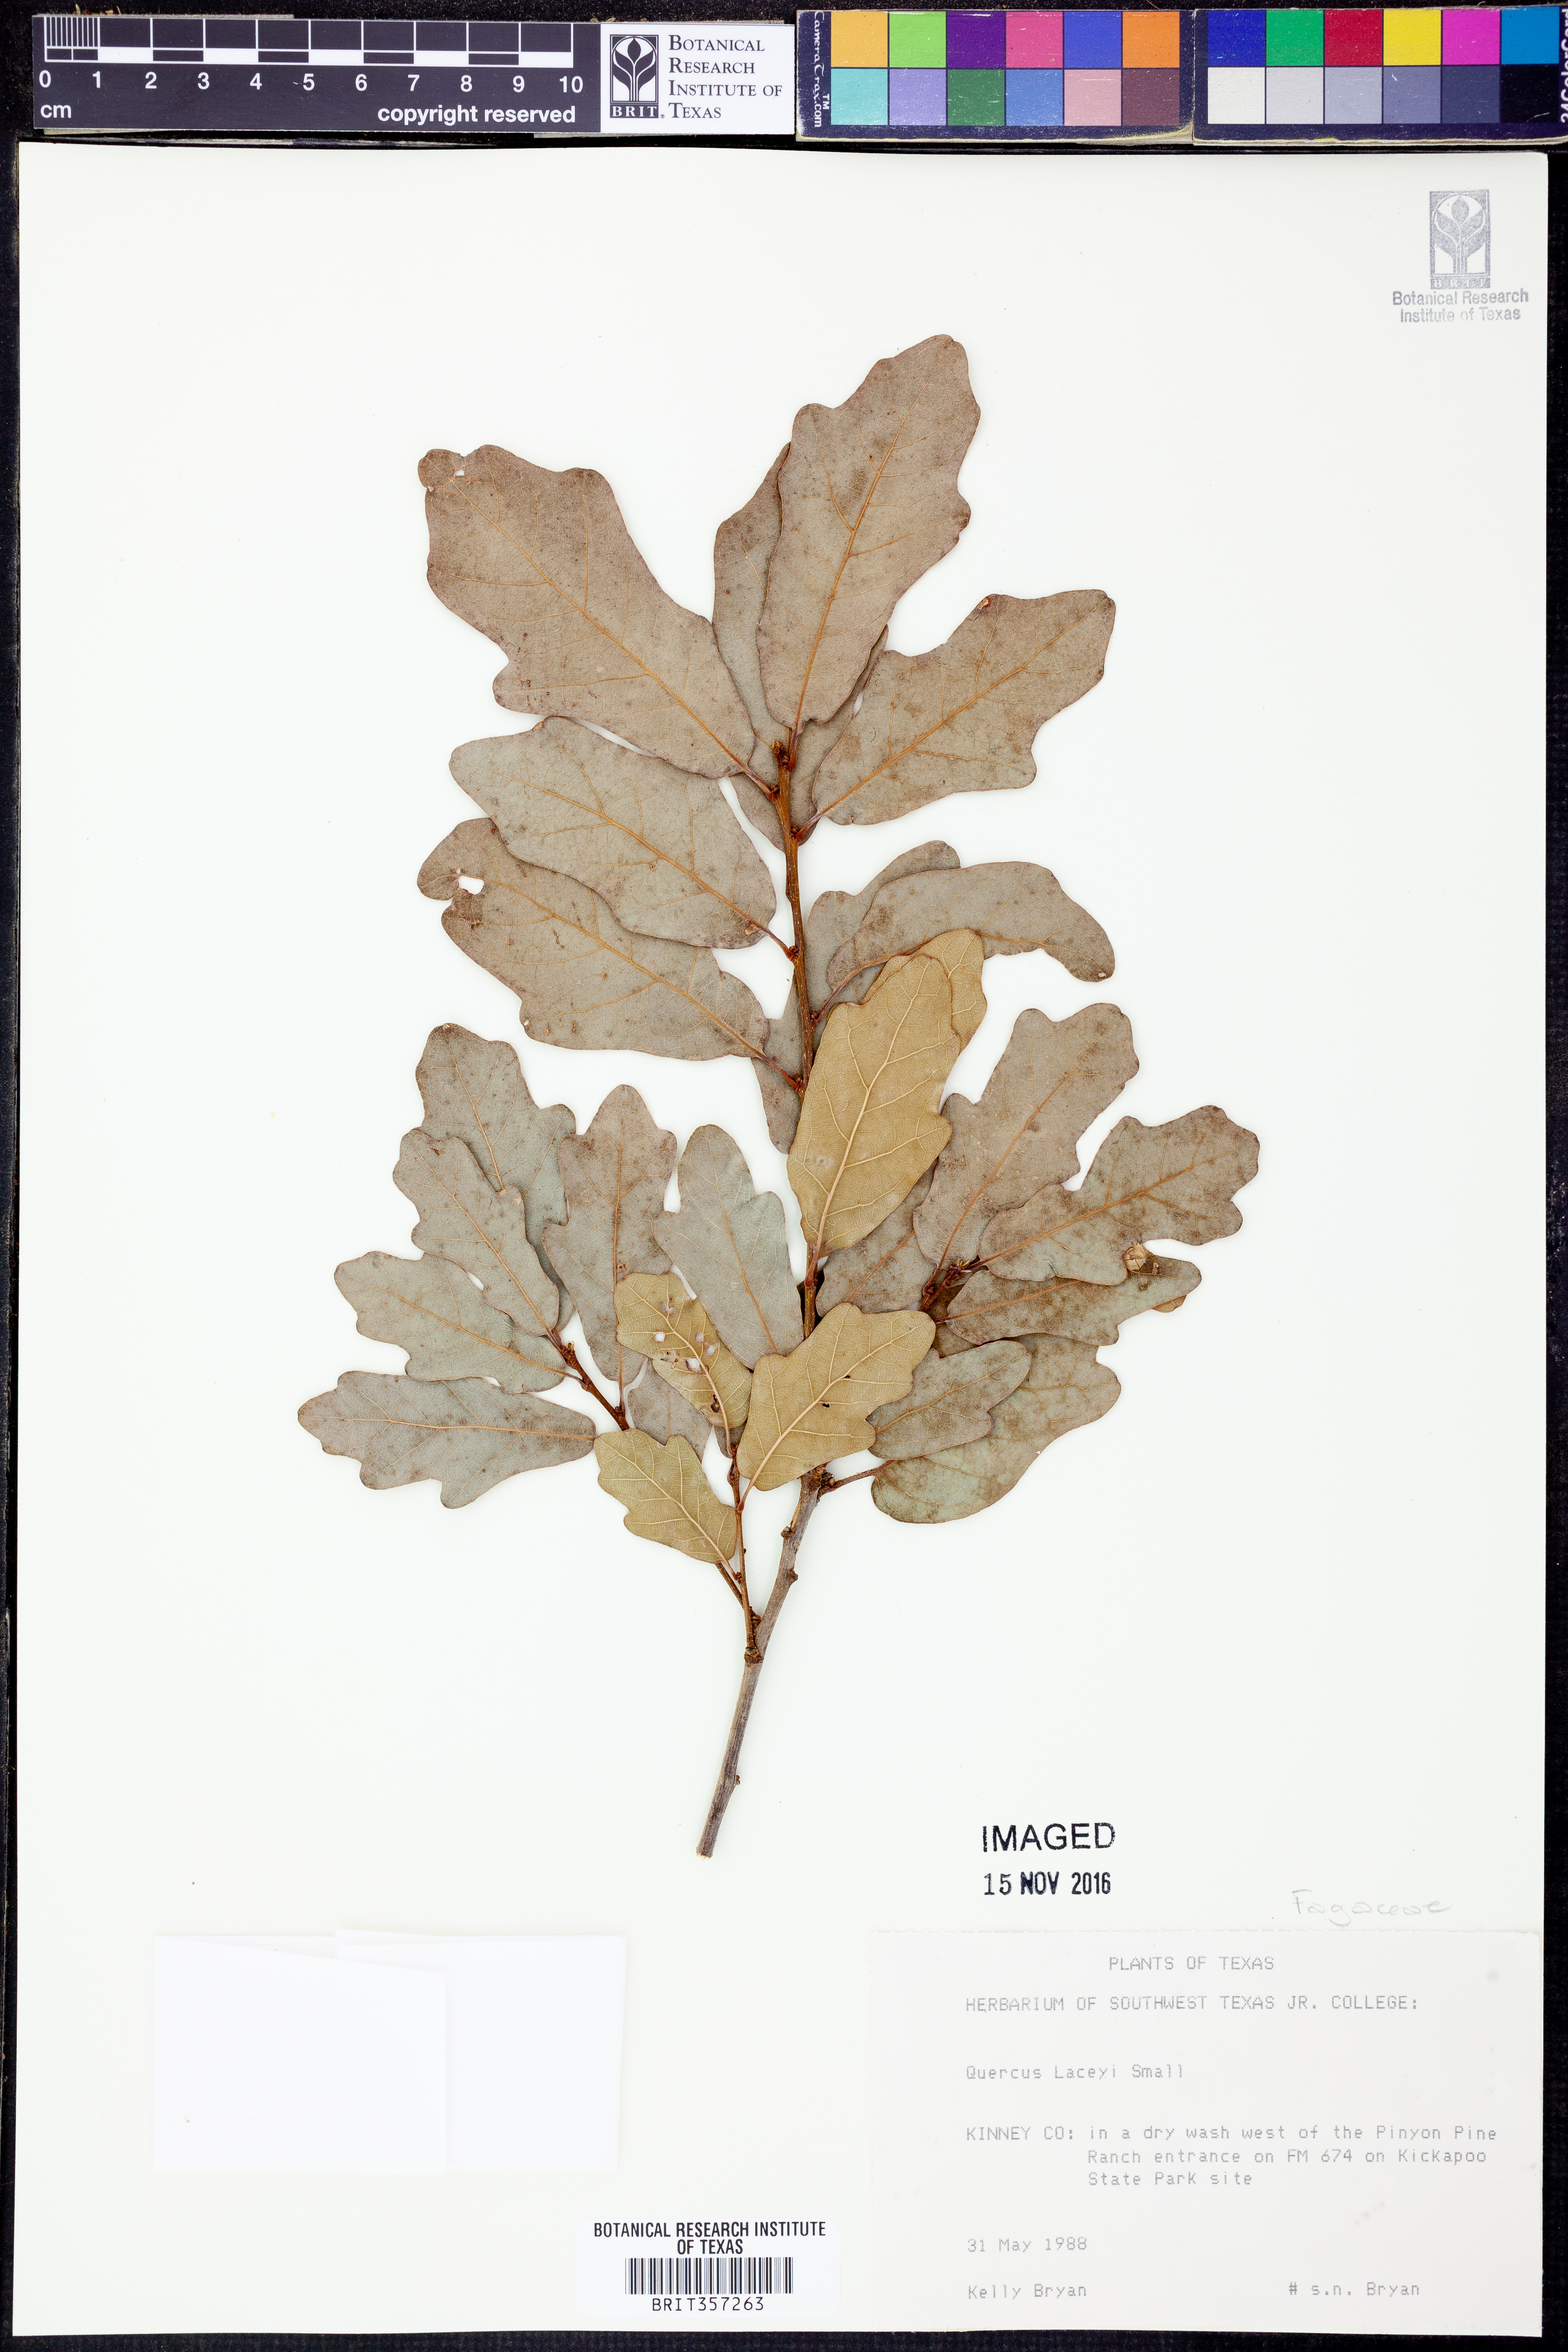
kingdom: Plantae
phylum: Tracheophyta
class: Magnoliopsida
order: Fagales
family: Fagaceae
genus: Quercus
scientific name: Quercus laceyi
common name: Lacey oak
